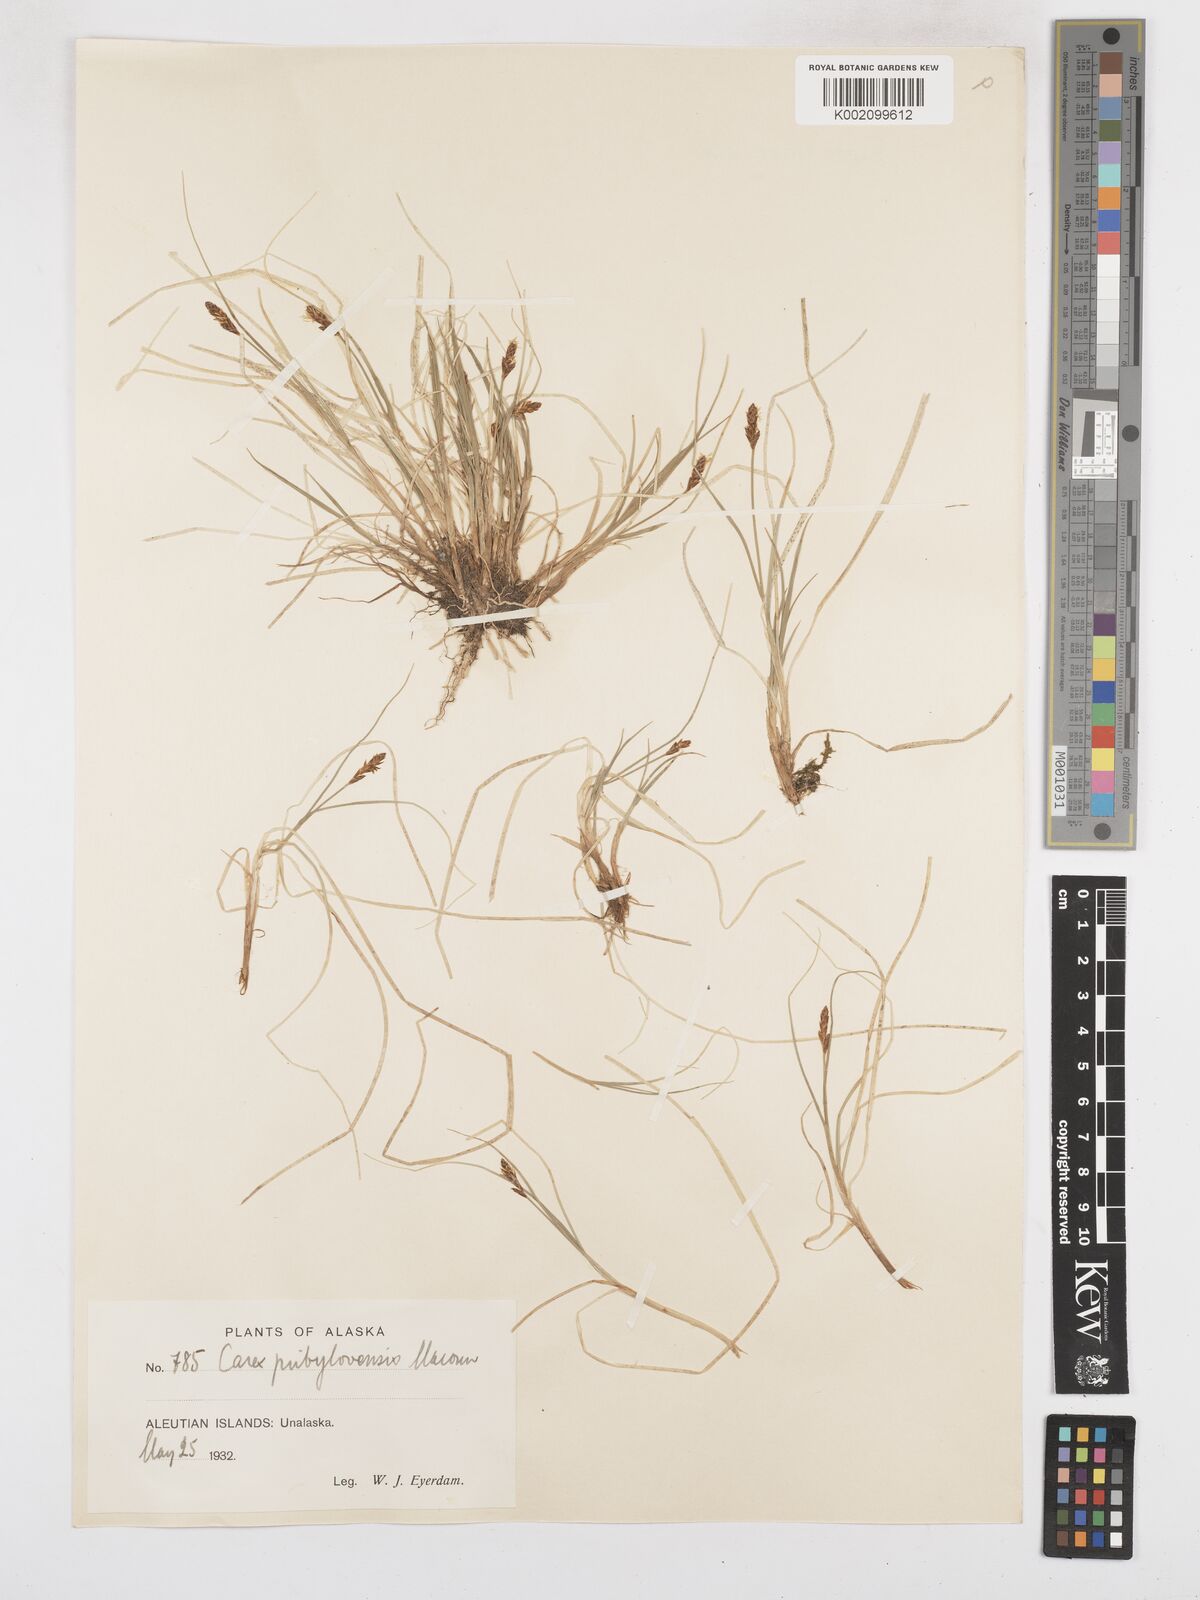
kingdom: Plantae
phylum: Tracheophyta
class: Liliopsida
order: Poales
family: Cyperaceae
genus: Carex
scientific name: Carex glareosa
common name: Clustered sedge
